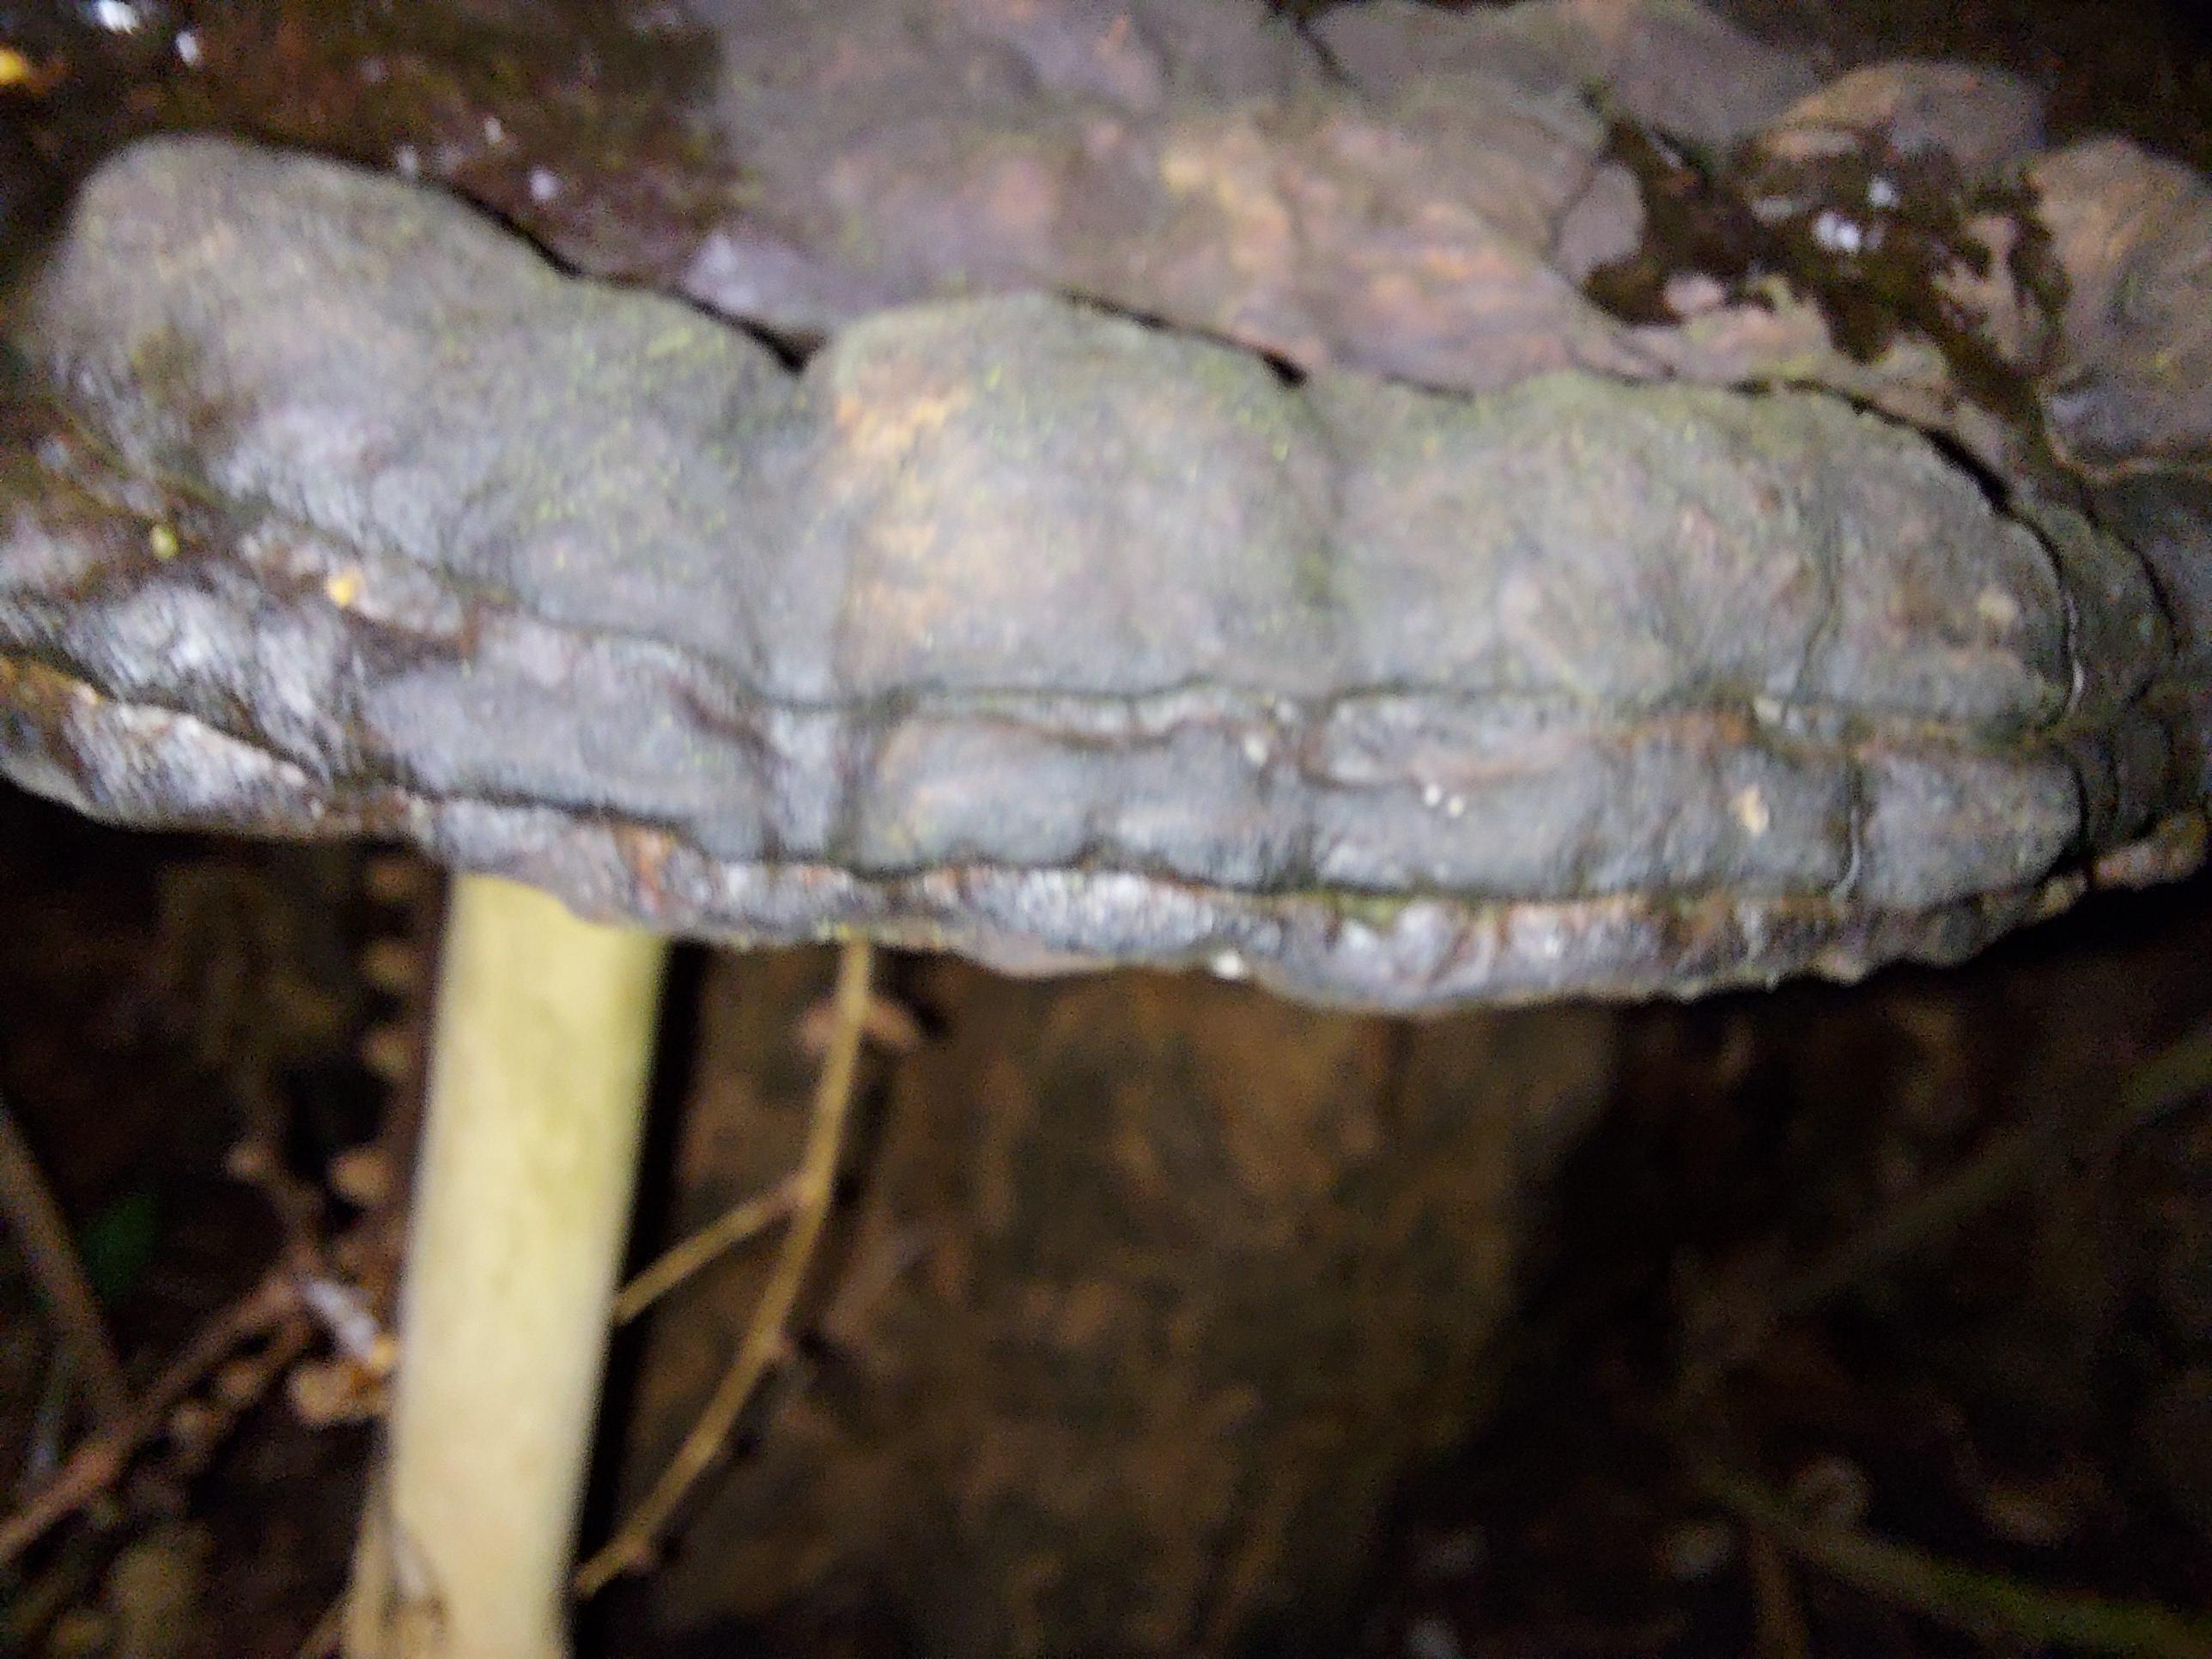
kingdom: Fungi
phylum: Basidiomycota
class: Agaricomycetes
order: Polyporales
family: Polyporaceae
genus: Ganoderma
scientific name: Ganoderma applanatum
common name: flad lakporesvamp
